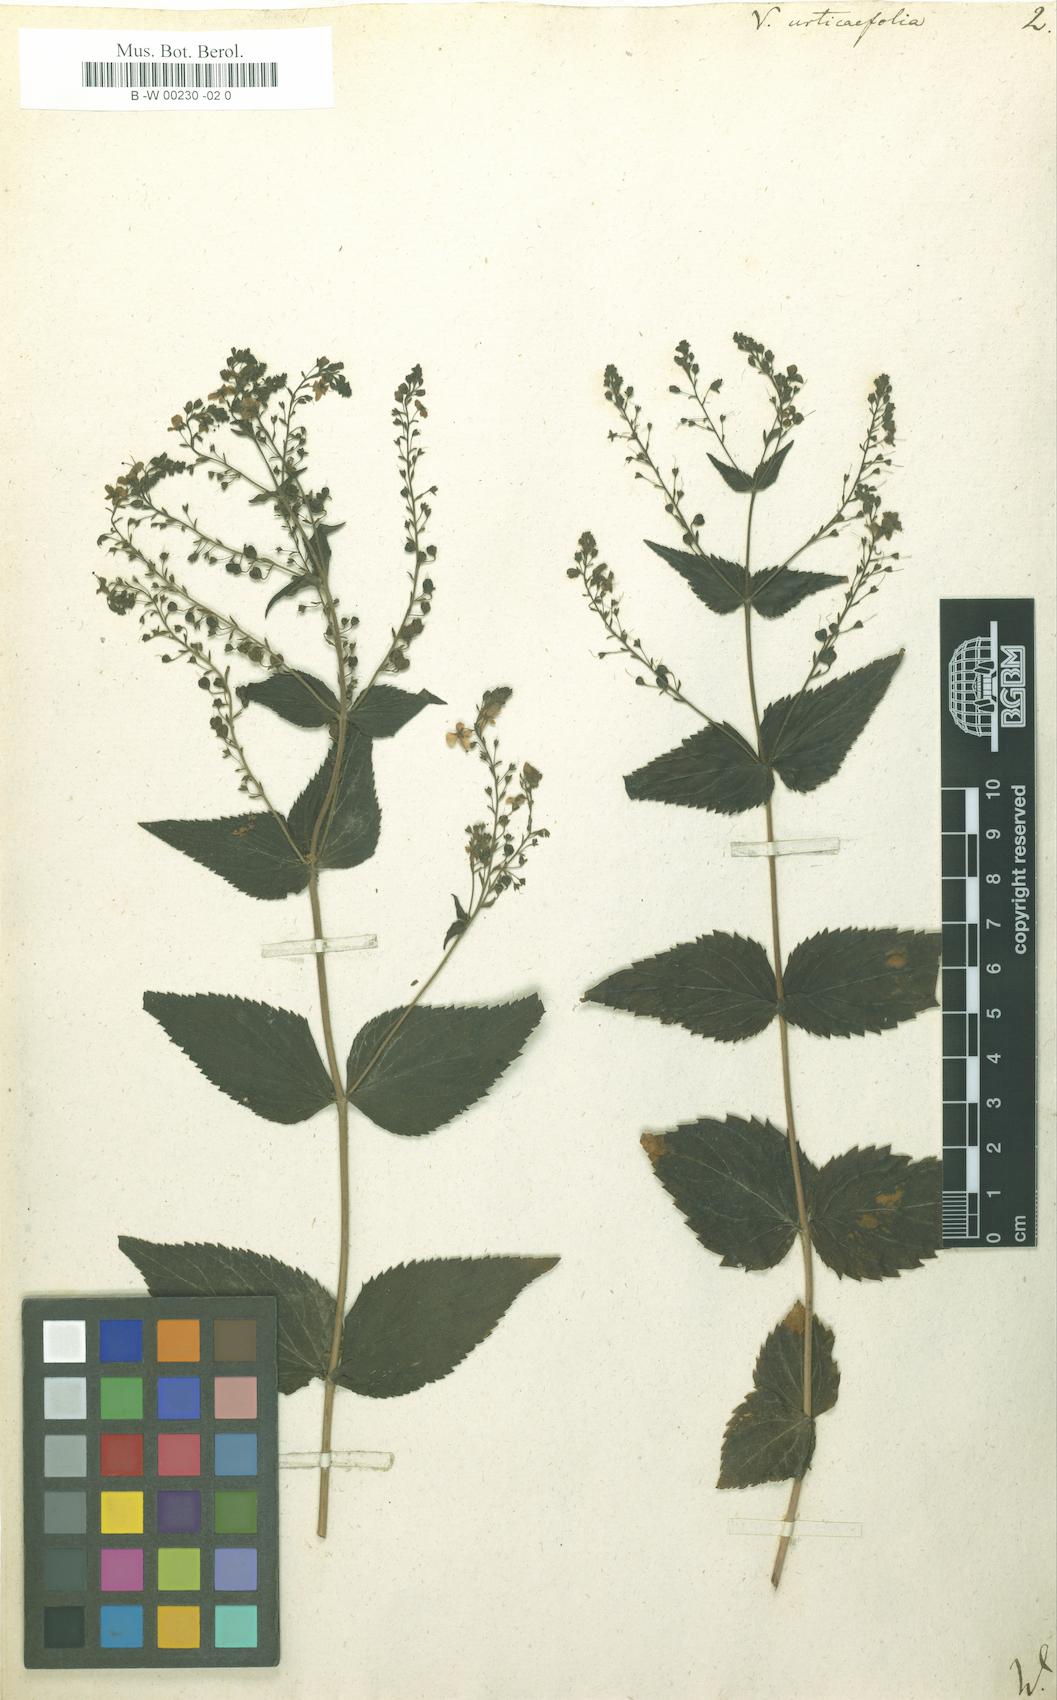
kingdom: Plantae
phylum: Tracheophyta
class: Magnoliopsida
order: Lamiales
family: Plantaginaceae
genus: Veronica
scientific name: Veronica urticifolia
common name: Nettle-leaf speedwell
